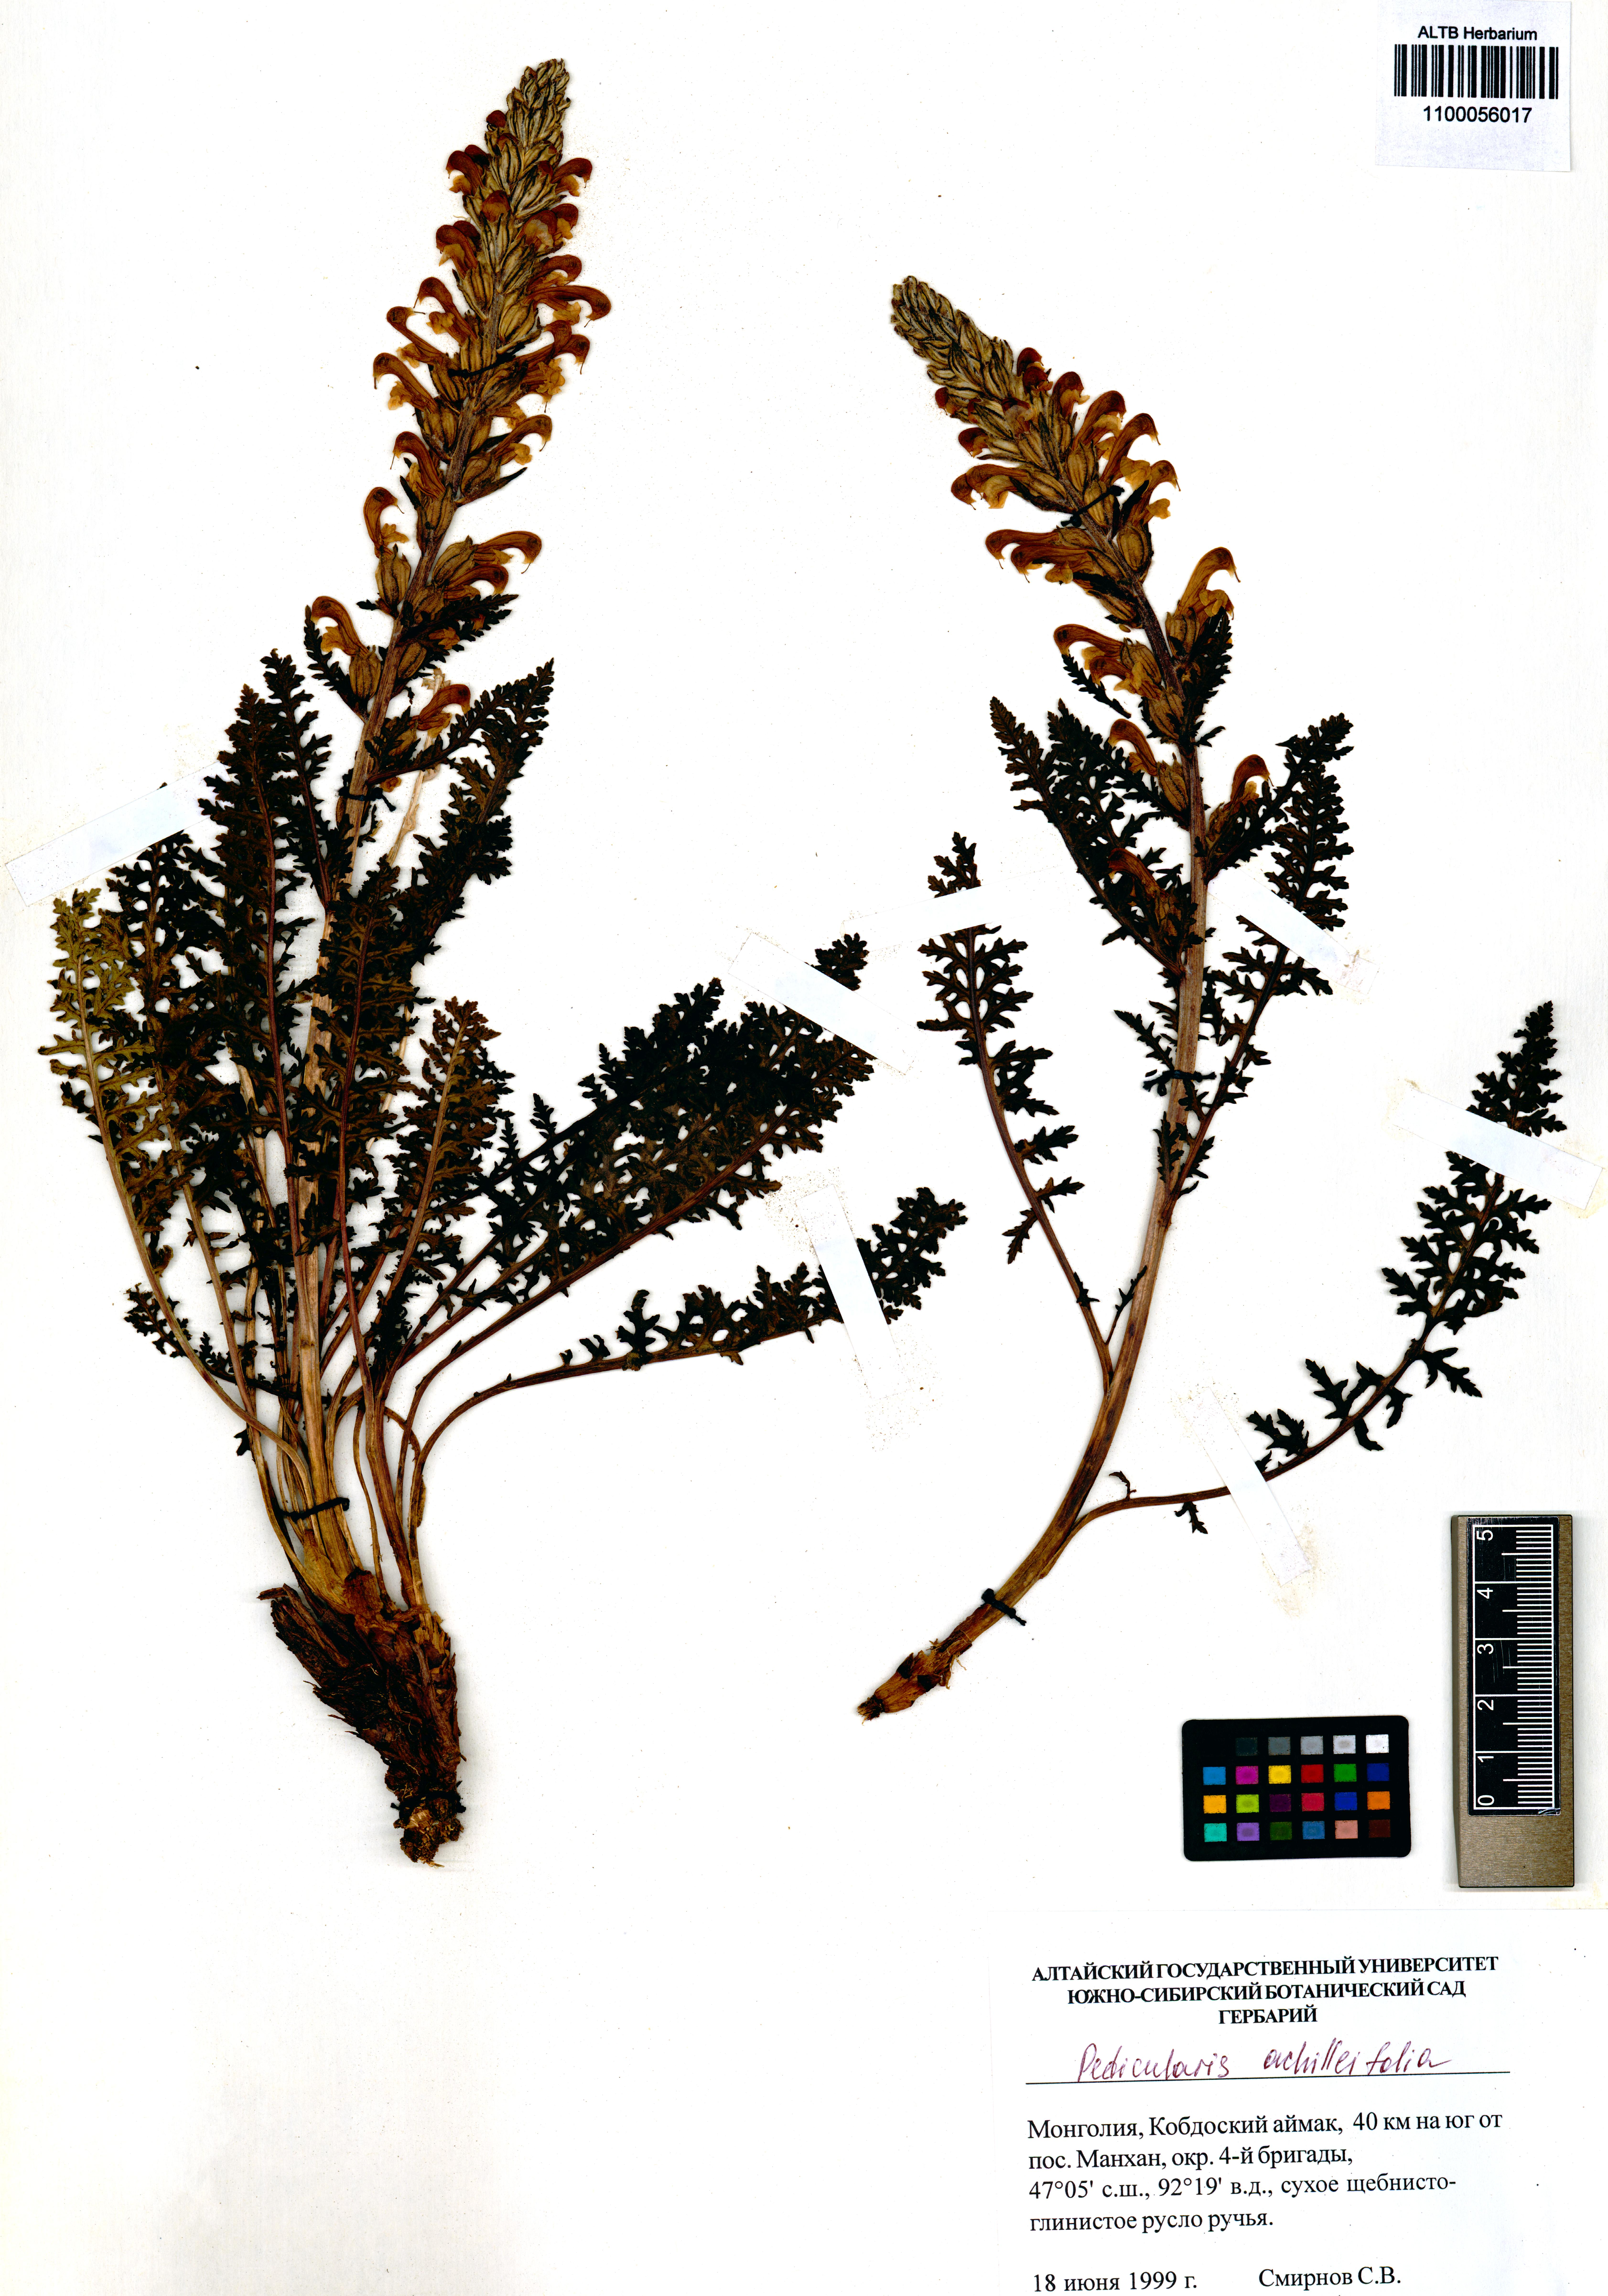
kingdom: Plantae
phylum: Tracheophyta
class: Magnoliopsida
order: Lamiales
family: Orobanchaceae
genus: Pedicularis
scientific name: Pedicularis achilleifolia
